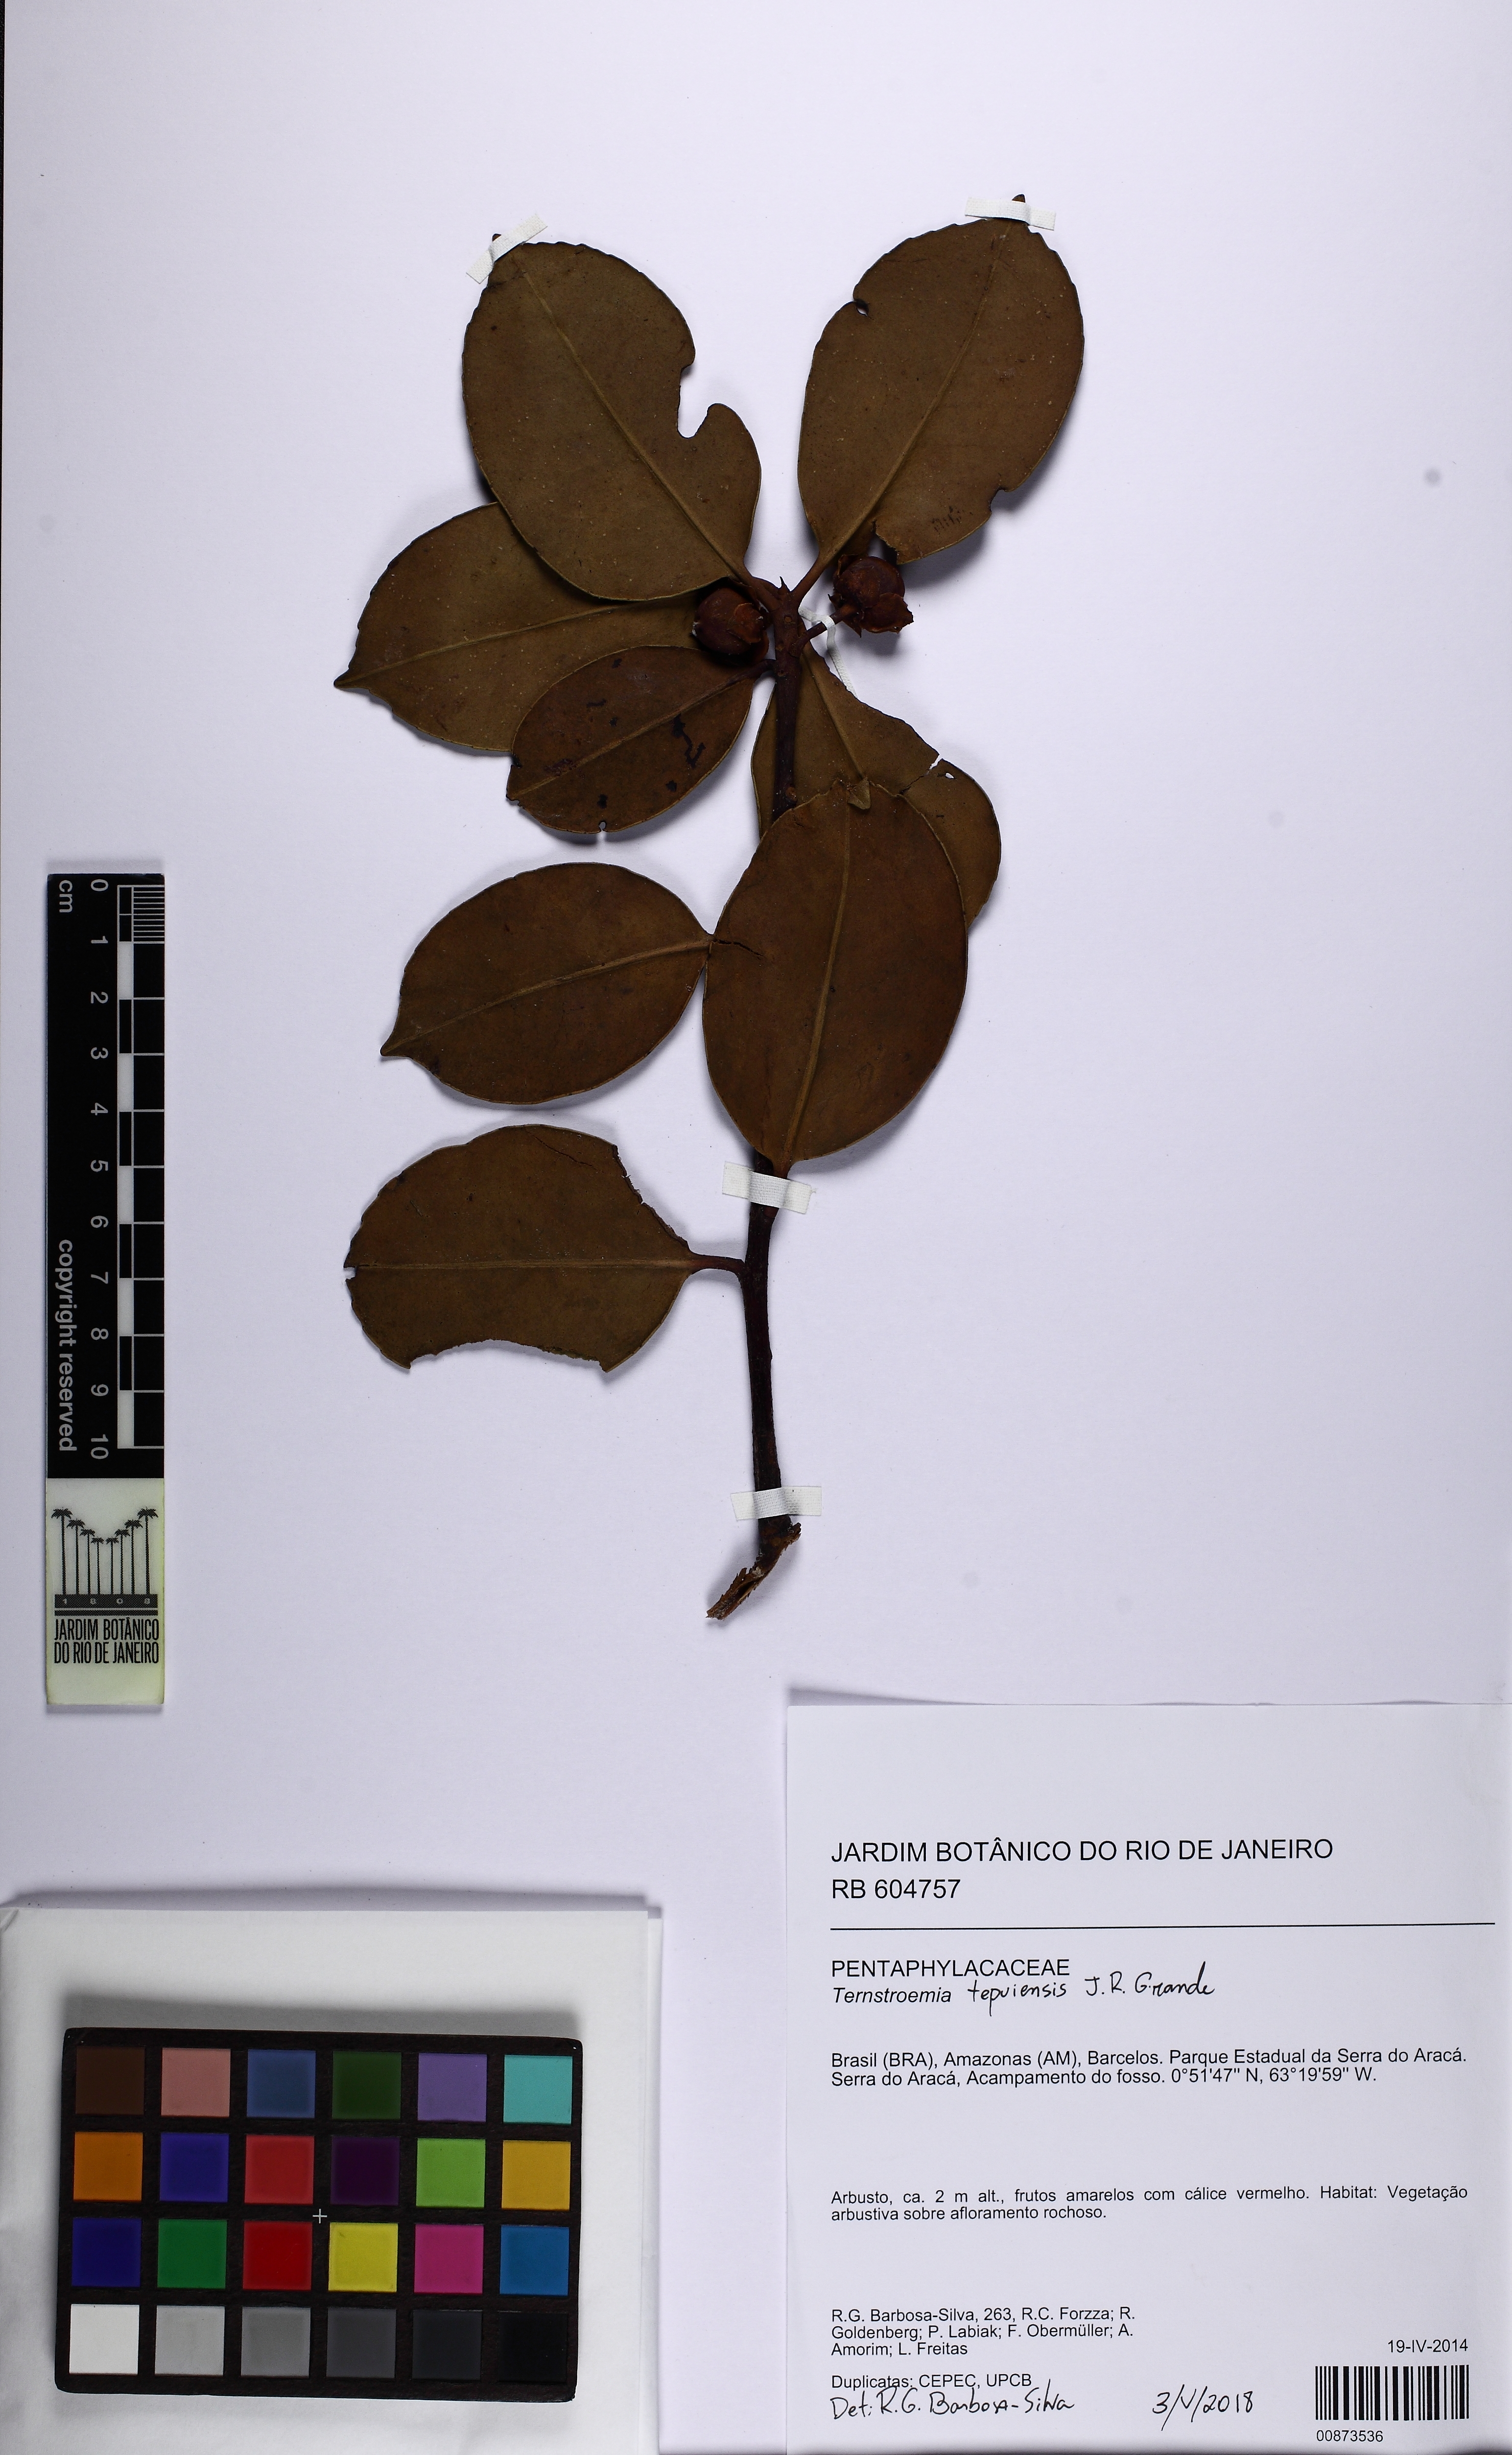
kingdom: Plantae
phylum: Tracheophyta
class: Magnoliopsida
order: Ericales
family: Pentaphylacaceae
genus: Ternstroemia
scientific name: Ternstroemia tepuiensis
